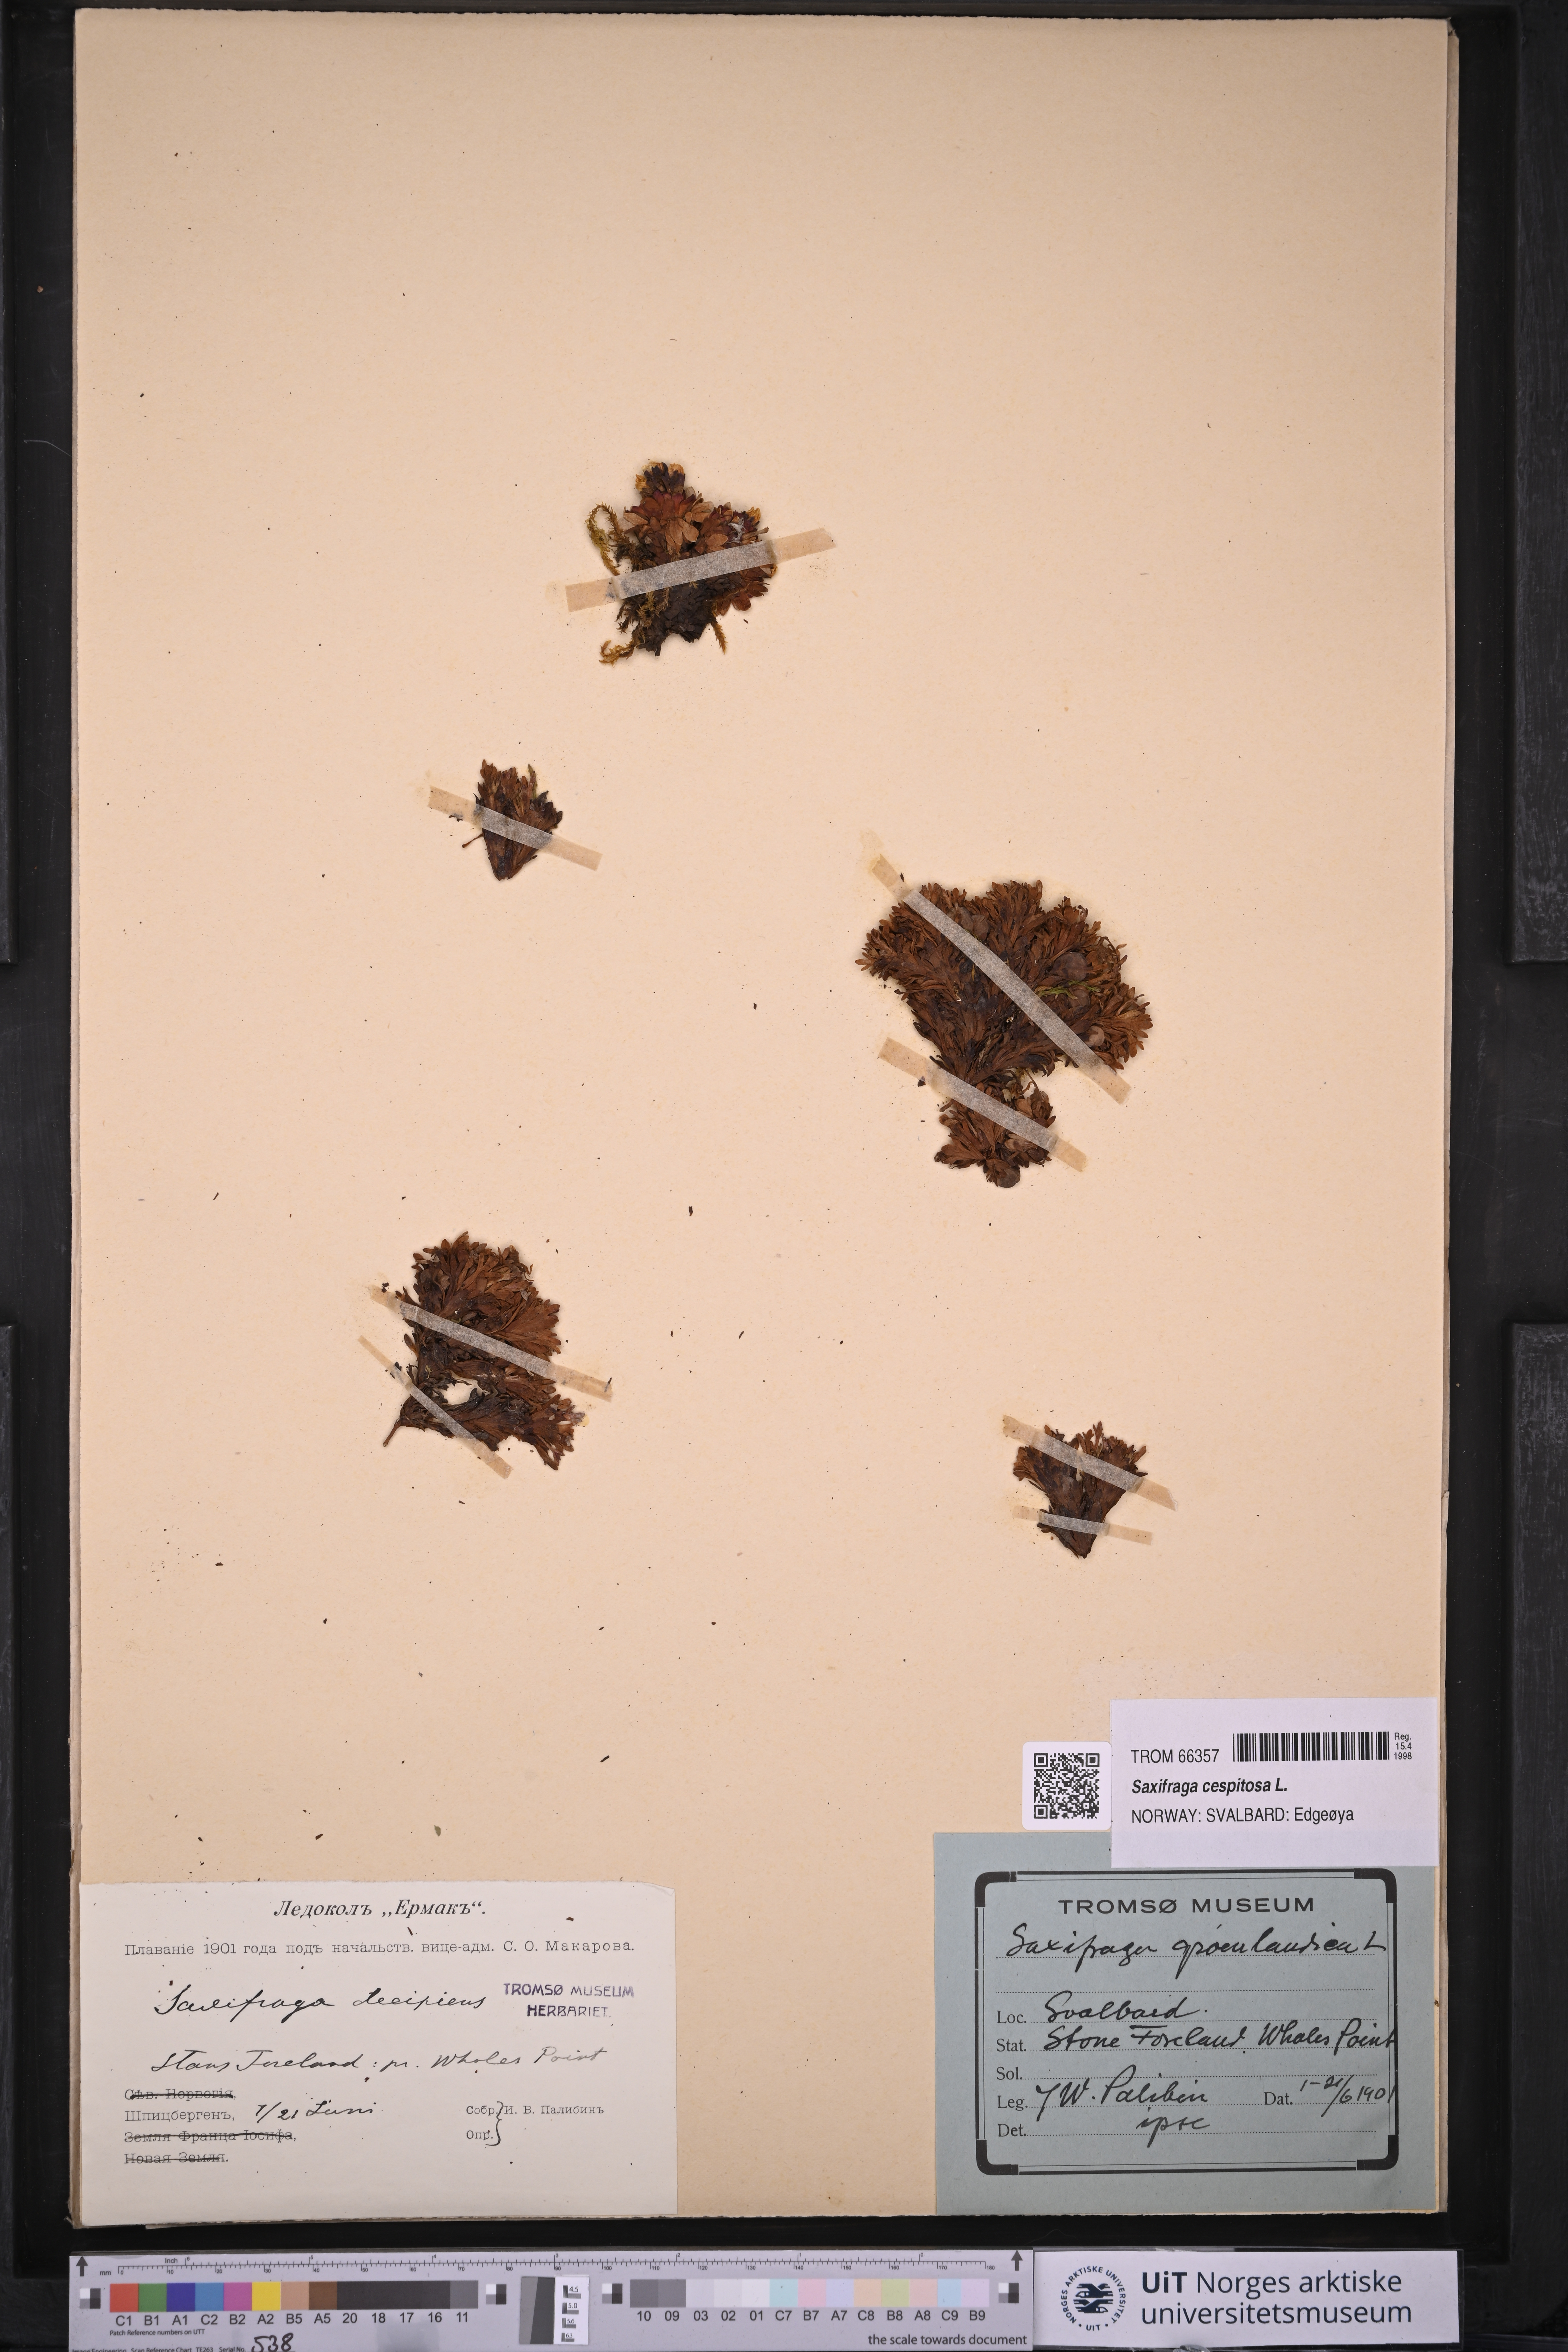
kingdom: Plantae
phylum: Tracheophyta
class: Magnoliopsida
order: Saxifragales
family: Saxifragaceae
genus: Saxifraga
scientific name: Saxifraga cespitosa
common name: Tufted saxifrage
